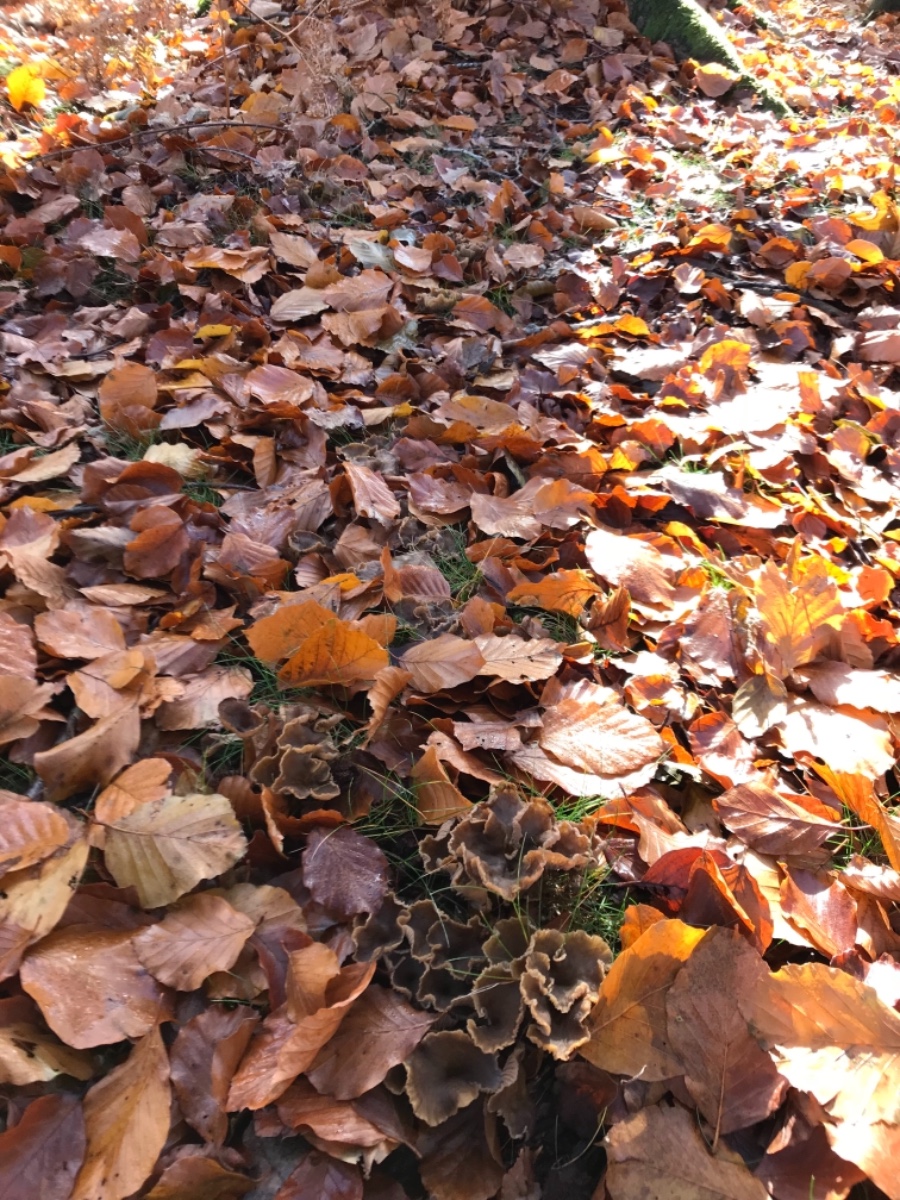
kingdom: Fungi
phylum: Basidiomycota
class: Agaricomycetes
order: Cantharellales
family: Hydnaceae
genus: Craterellus
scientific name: Craterellus tubaeformis
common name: tragt-kantarel
